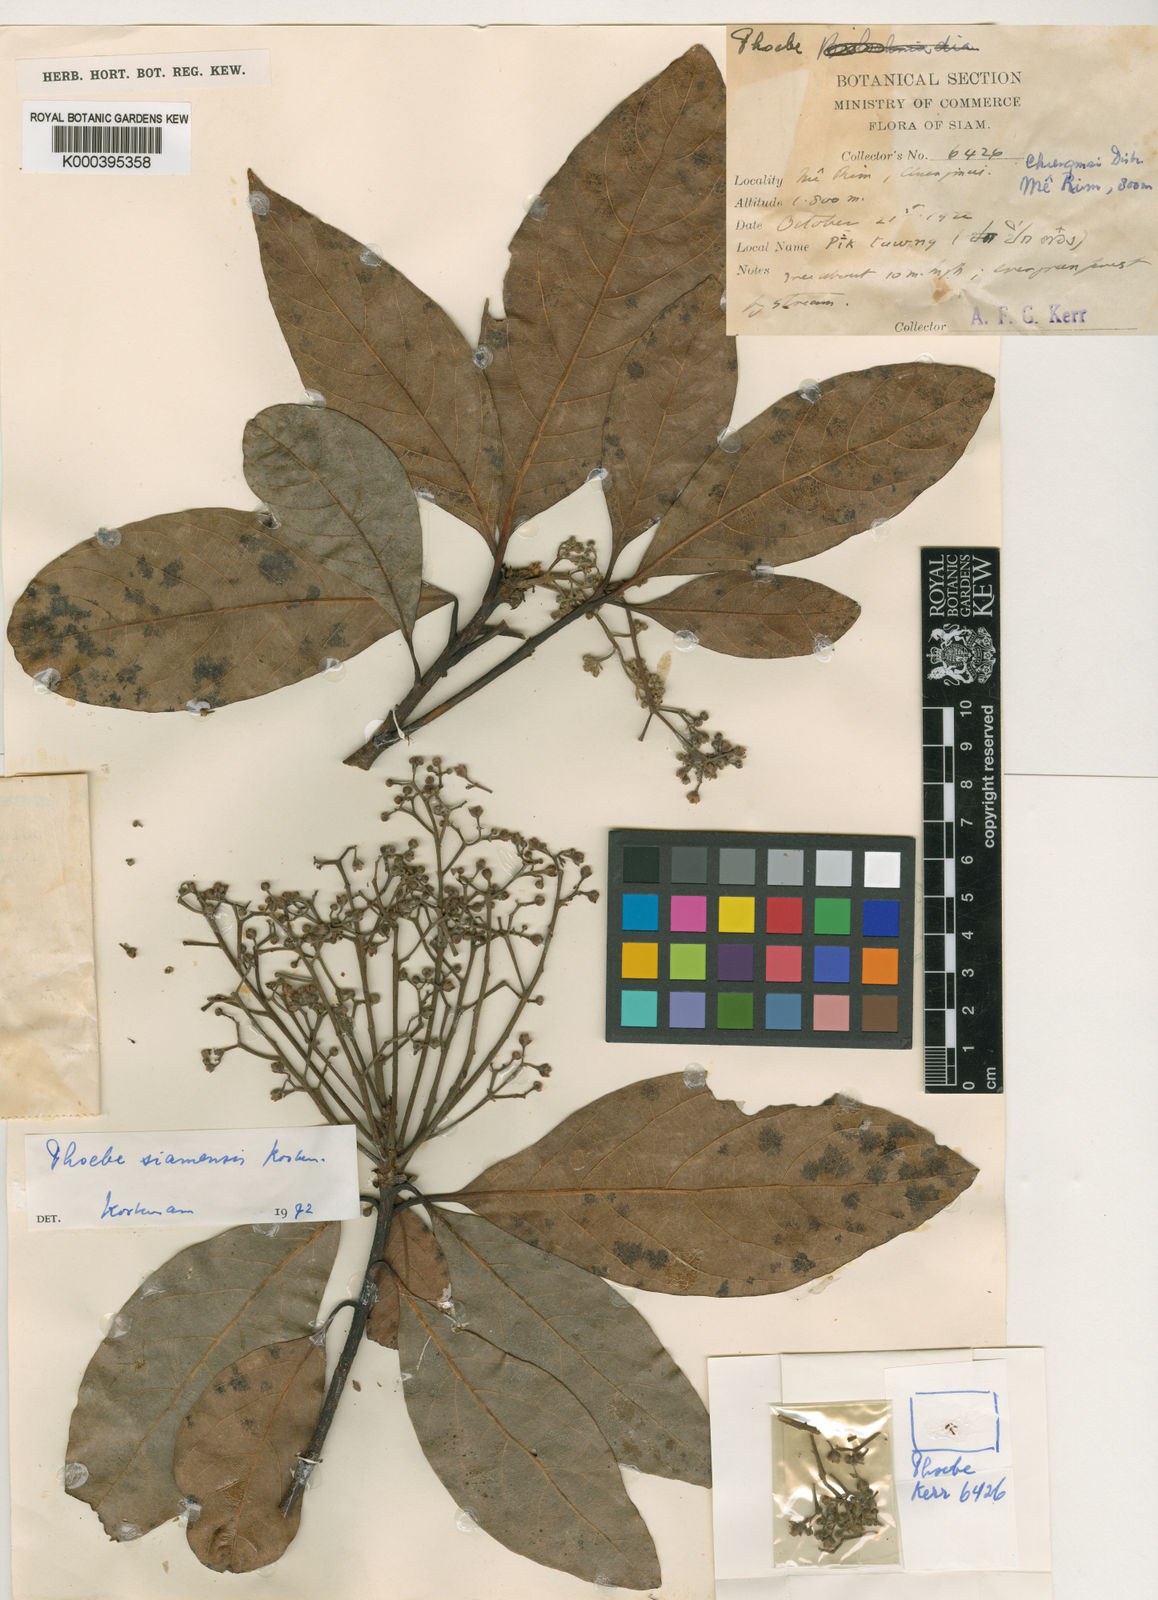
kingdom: Plantae
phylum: Tracheophyta
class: Magnoliopsida
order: Laurales
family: Lauraceae
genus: Phoebe
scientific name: Phoebe siamensis
